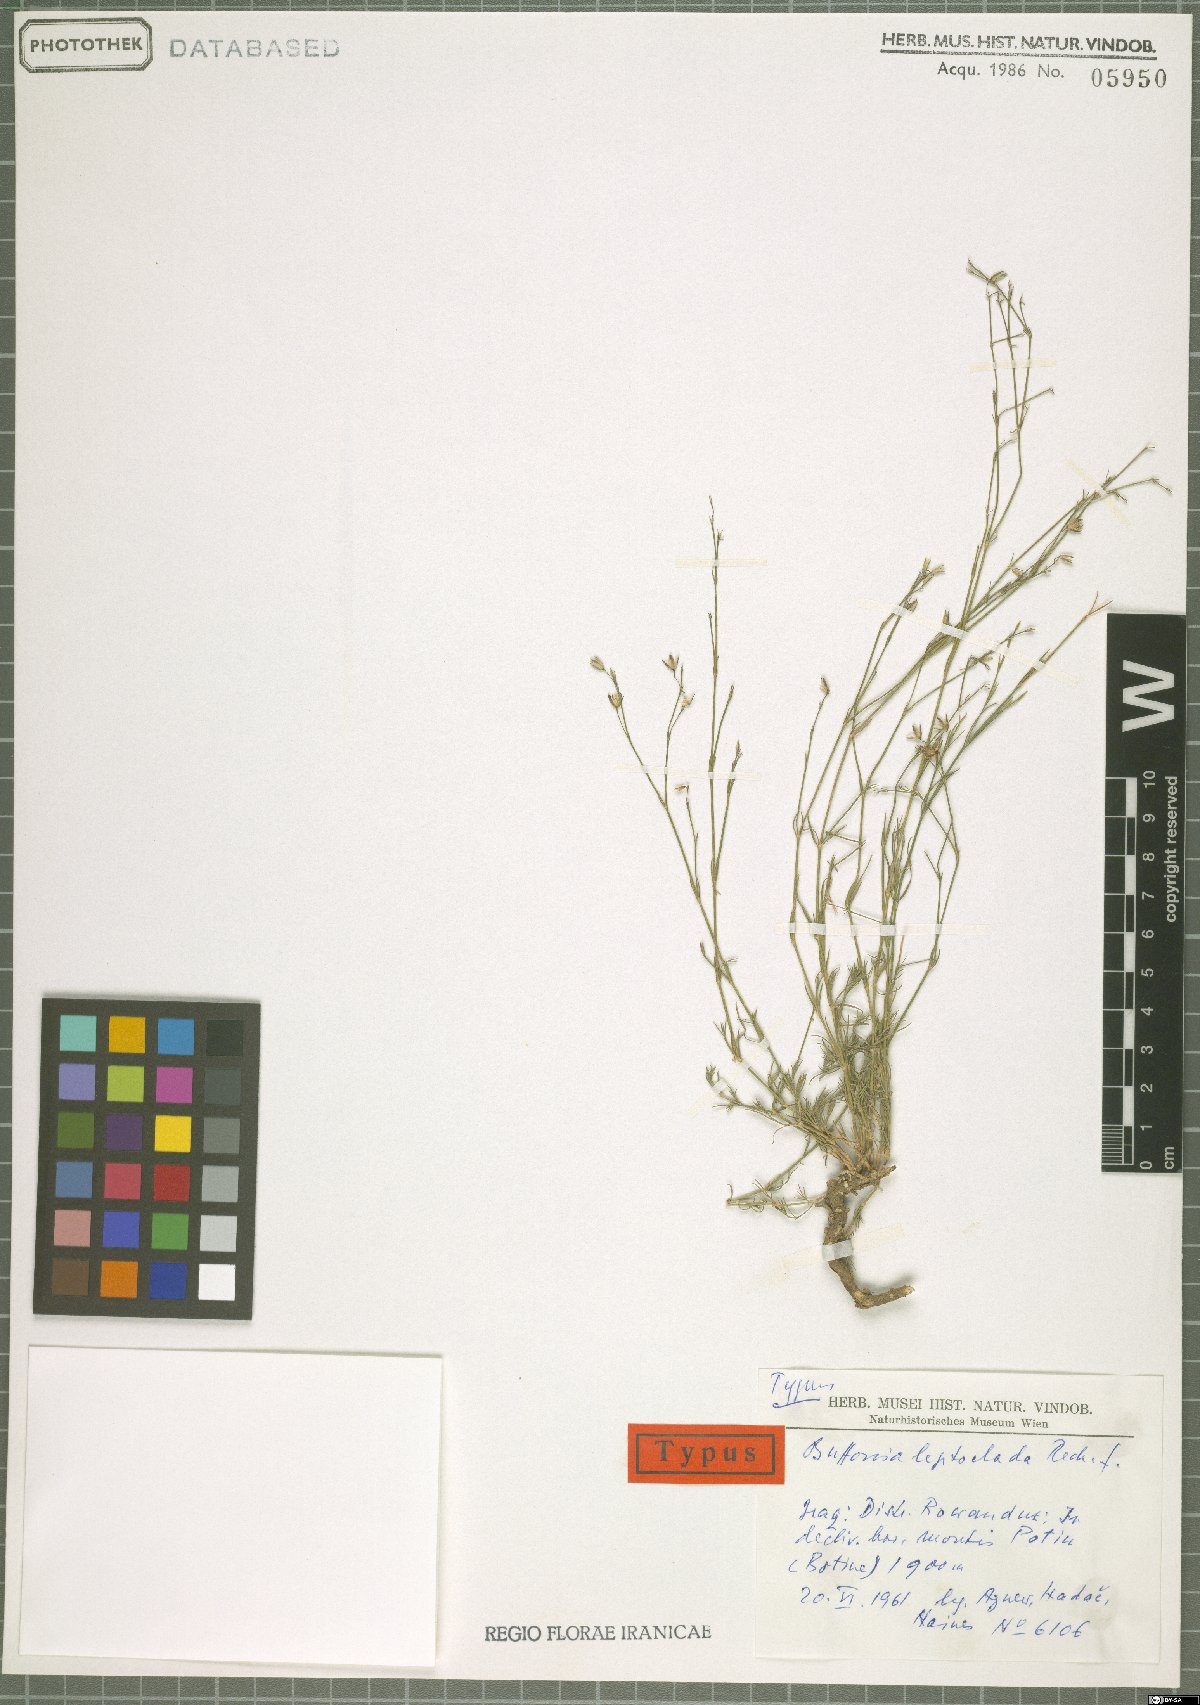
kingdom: Plantae
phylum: Tracheophyta
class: Magnoliopsida
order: Caryophyllales
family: Caryophyllaceae
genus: Bufonia
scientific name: Bufonia leptoclada
